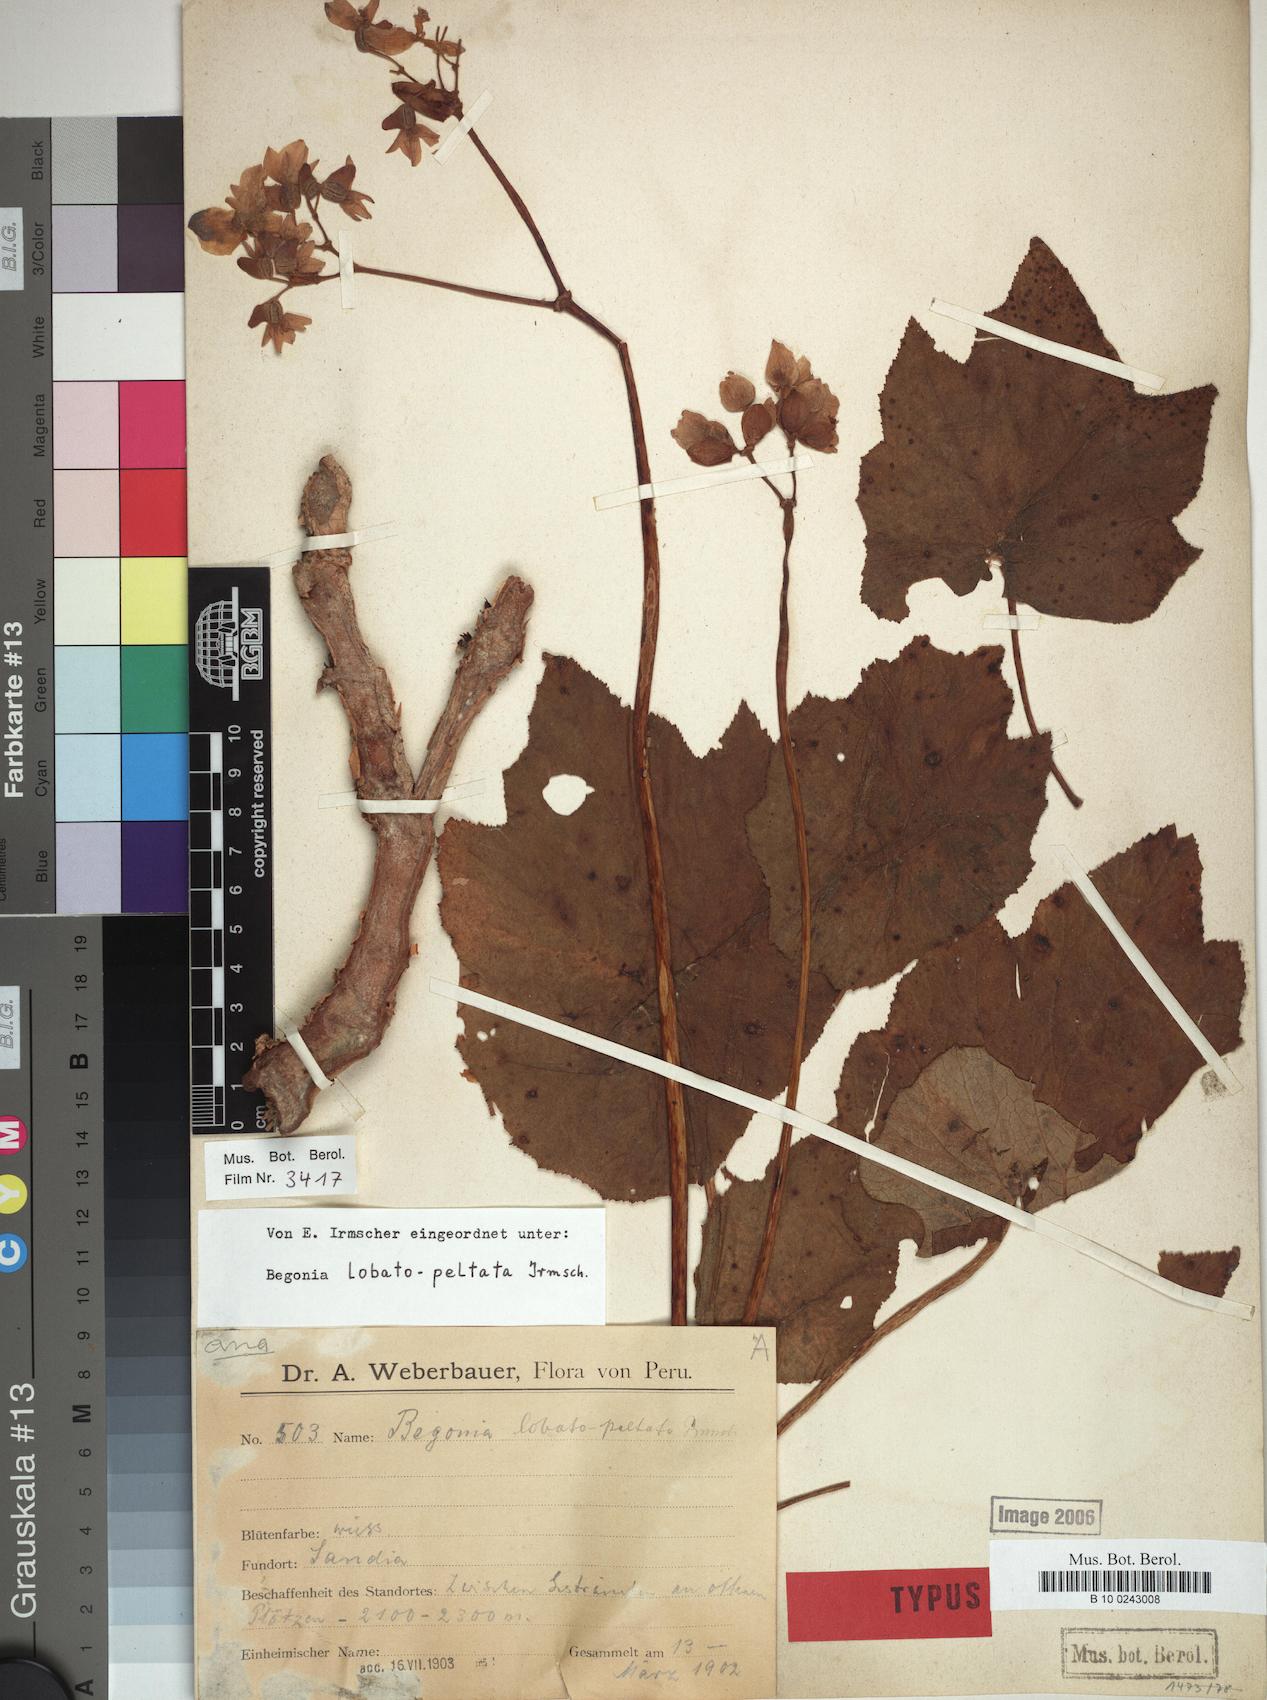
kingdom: Plantae
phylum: Tracheophyta
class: Magnoliopsida
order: Cucurbitales
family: Begoniaceae
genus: Begonia
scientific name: Begonia acerifolia
